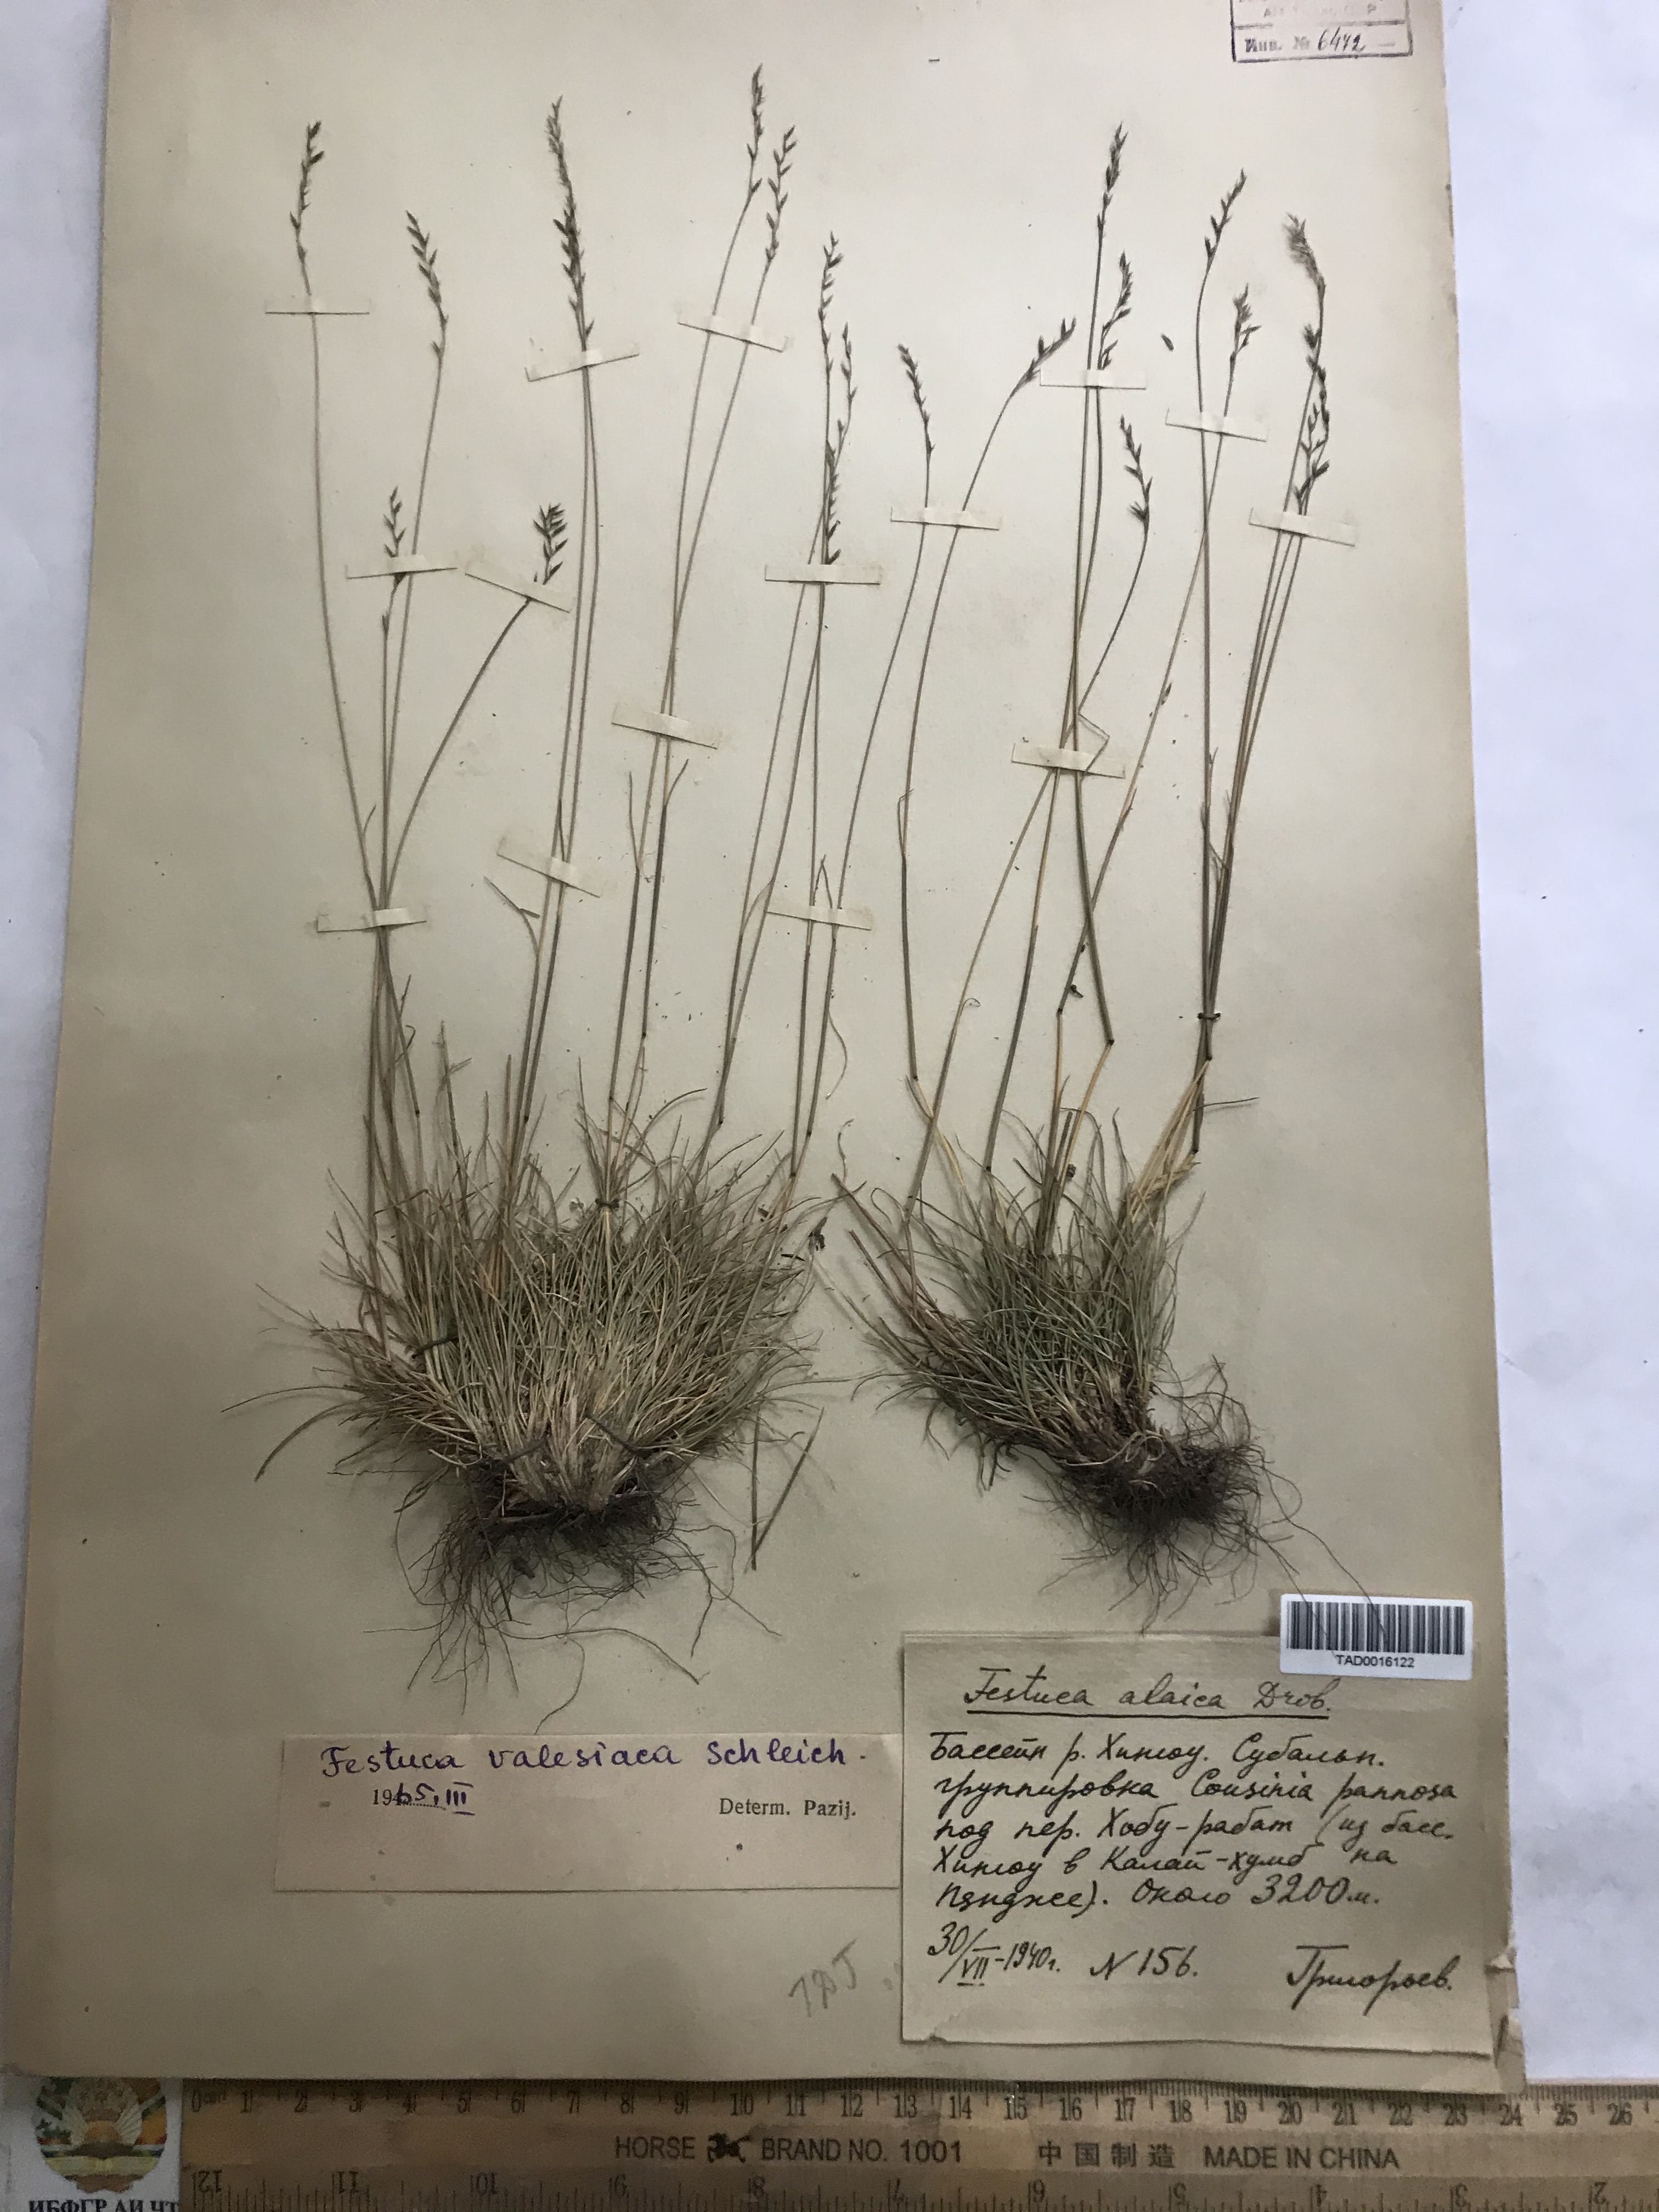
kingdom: Plantae
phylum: Tracheophyta
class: Liliopsida
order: Poales
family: Poaceae
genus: Festuca
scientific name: Festuca valesiaca
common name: Volga fescue
